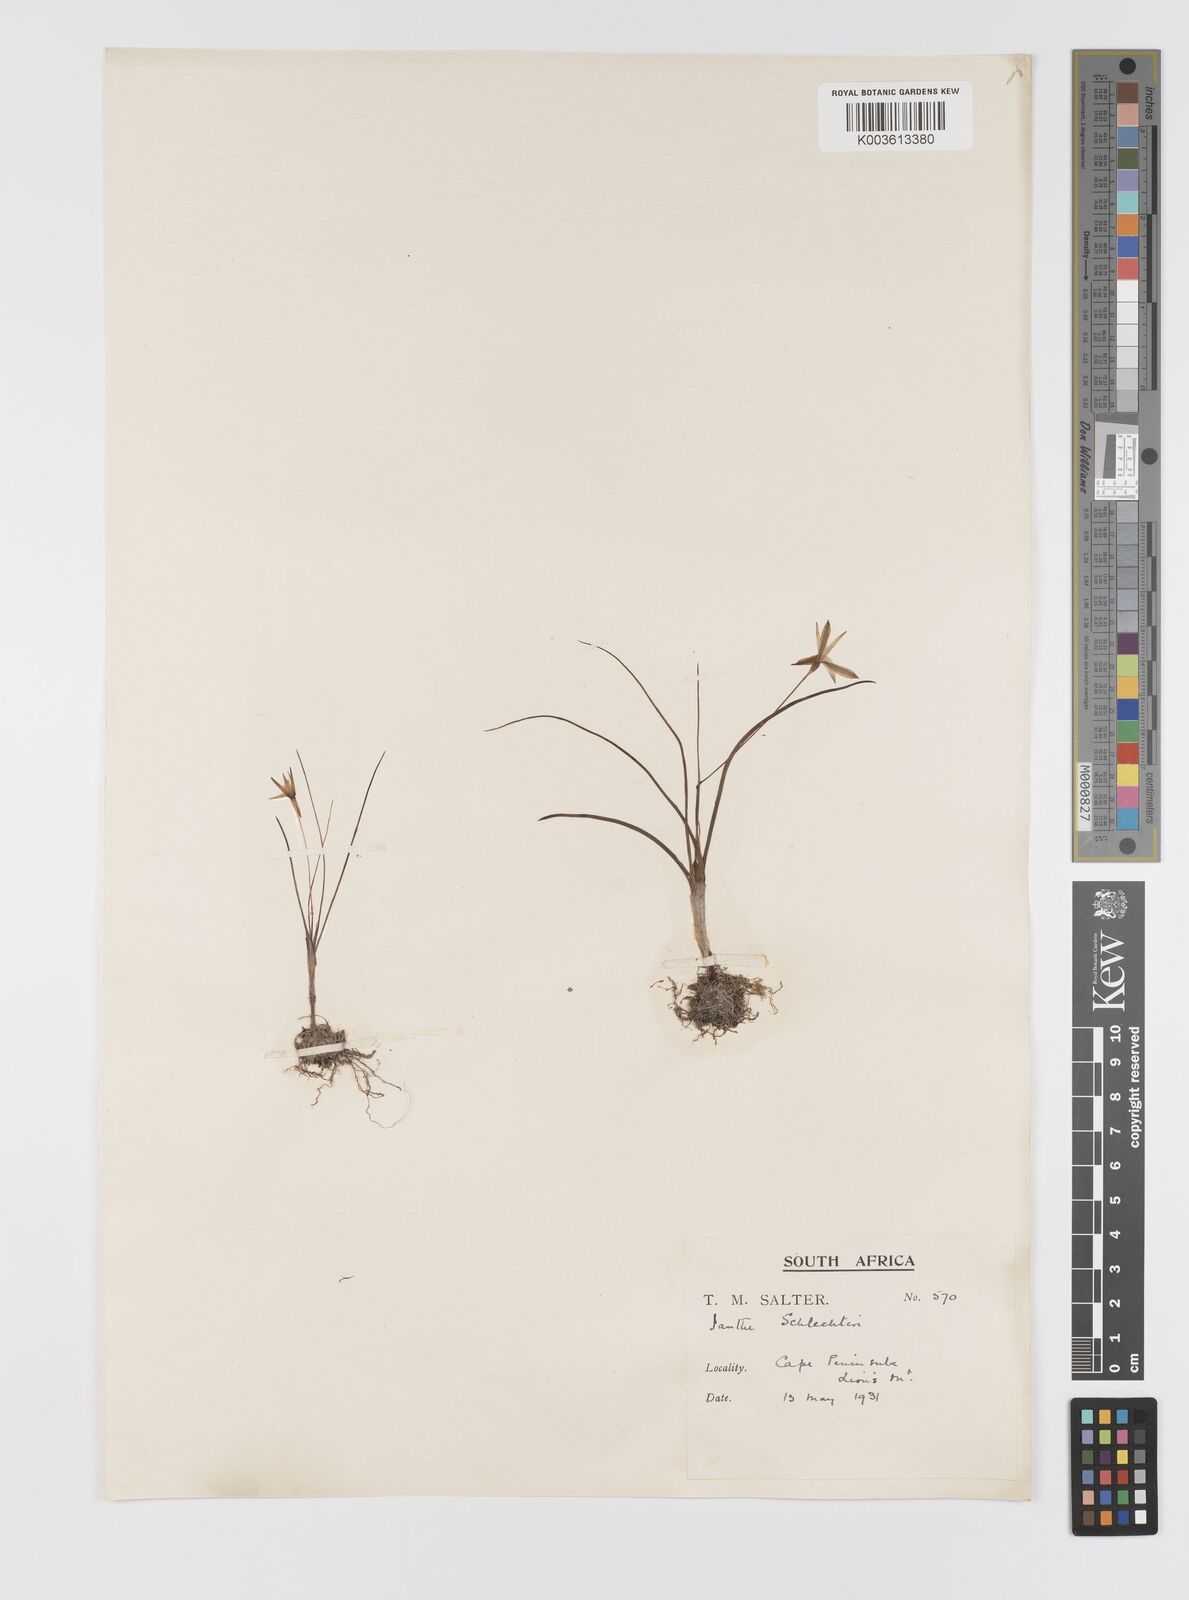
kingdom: Plantae
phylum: Tracheophyta
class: Liliopsida
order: Asparagales
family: Hypoxidaceae
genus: Pauridia
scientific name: Pauridia affinis
